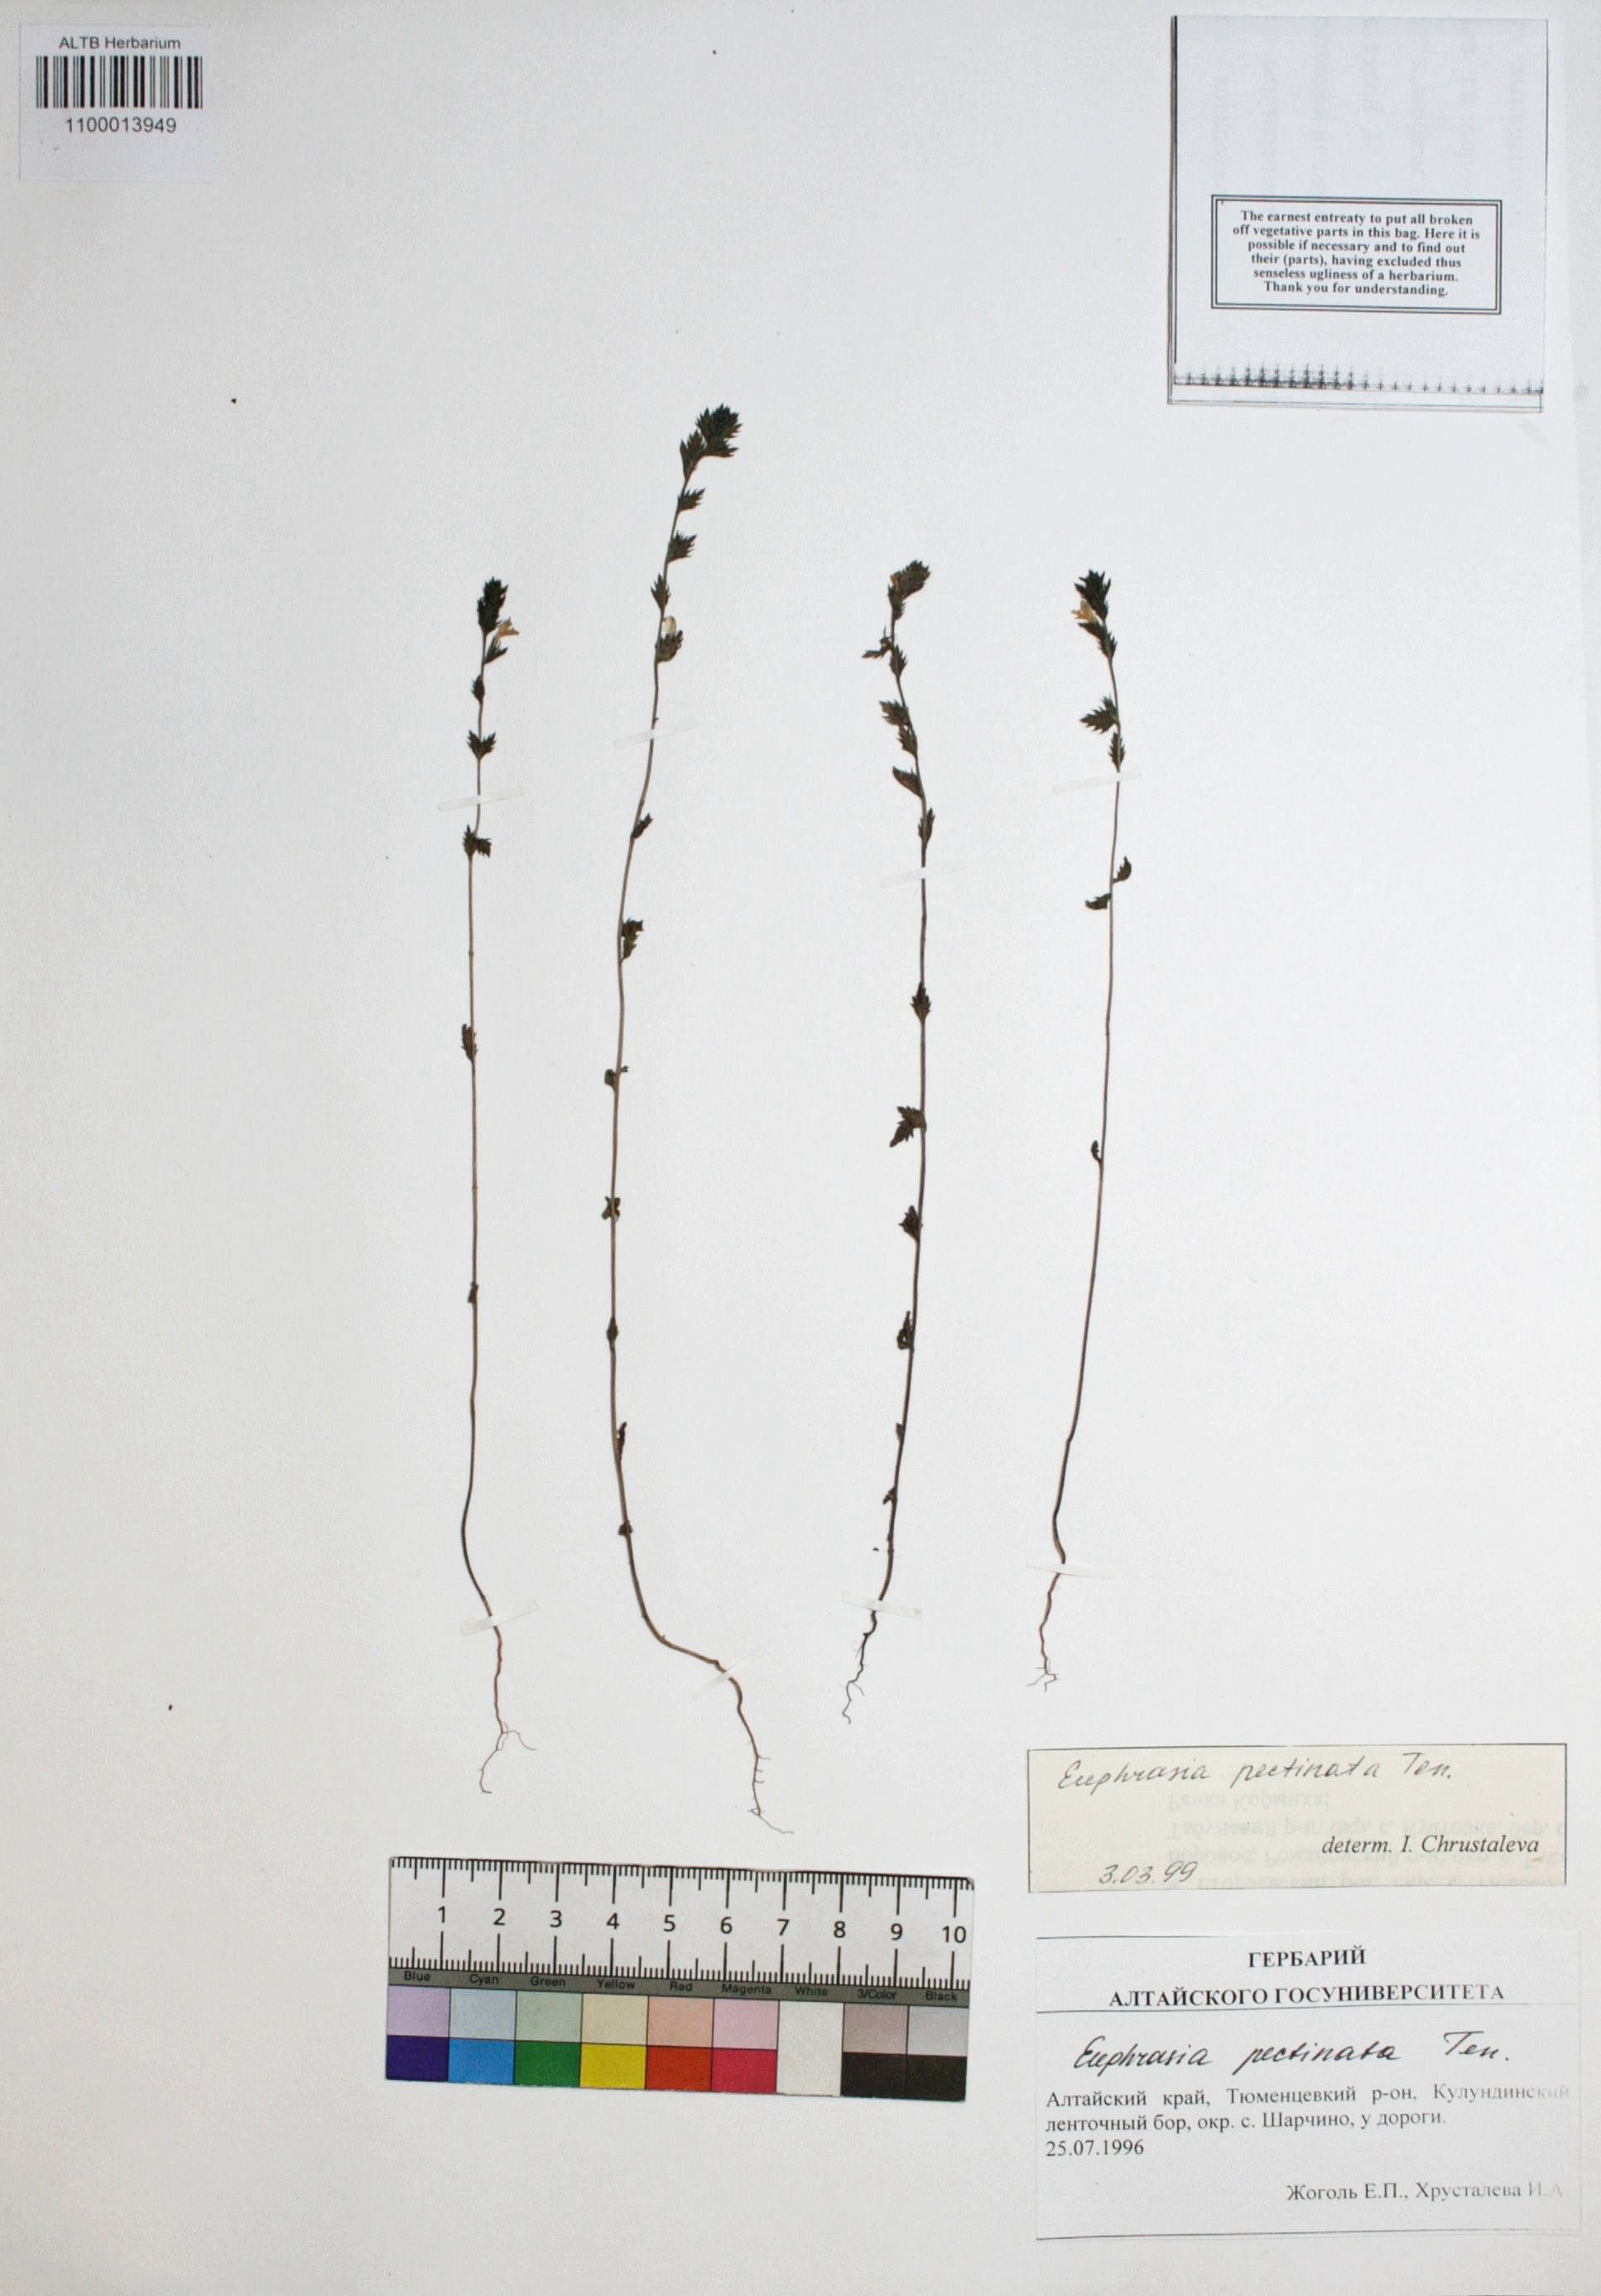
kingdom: Plantae
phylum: Tracheophyta
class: Magnoliopsida
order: Lamiales
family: Orobanchaceae
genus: Euphrasia
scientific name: Euphrasia pectinata
